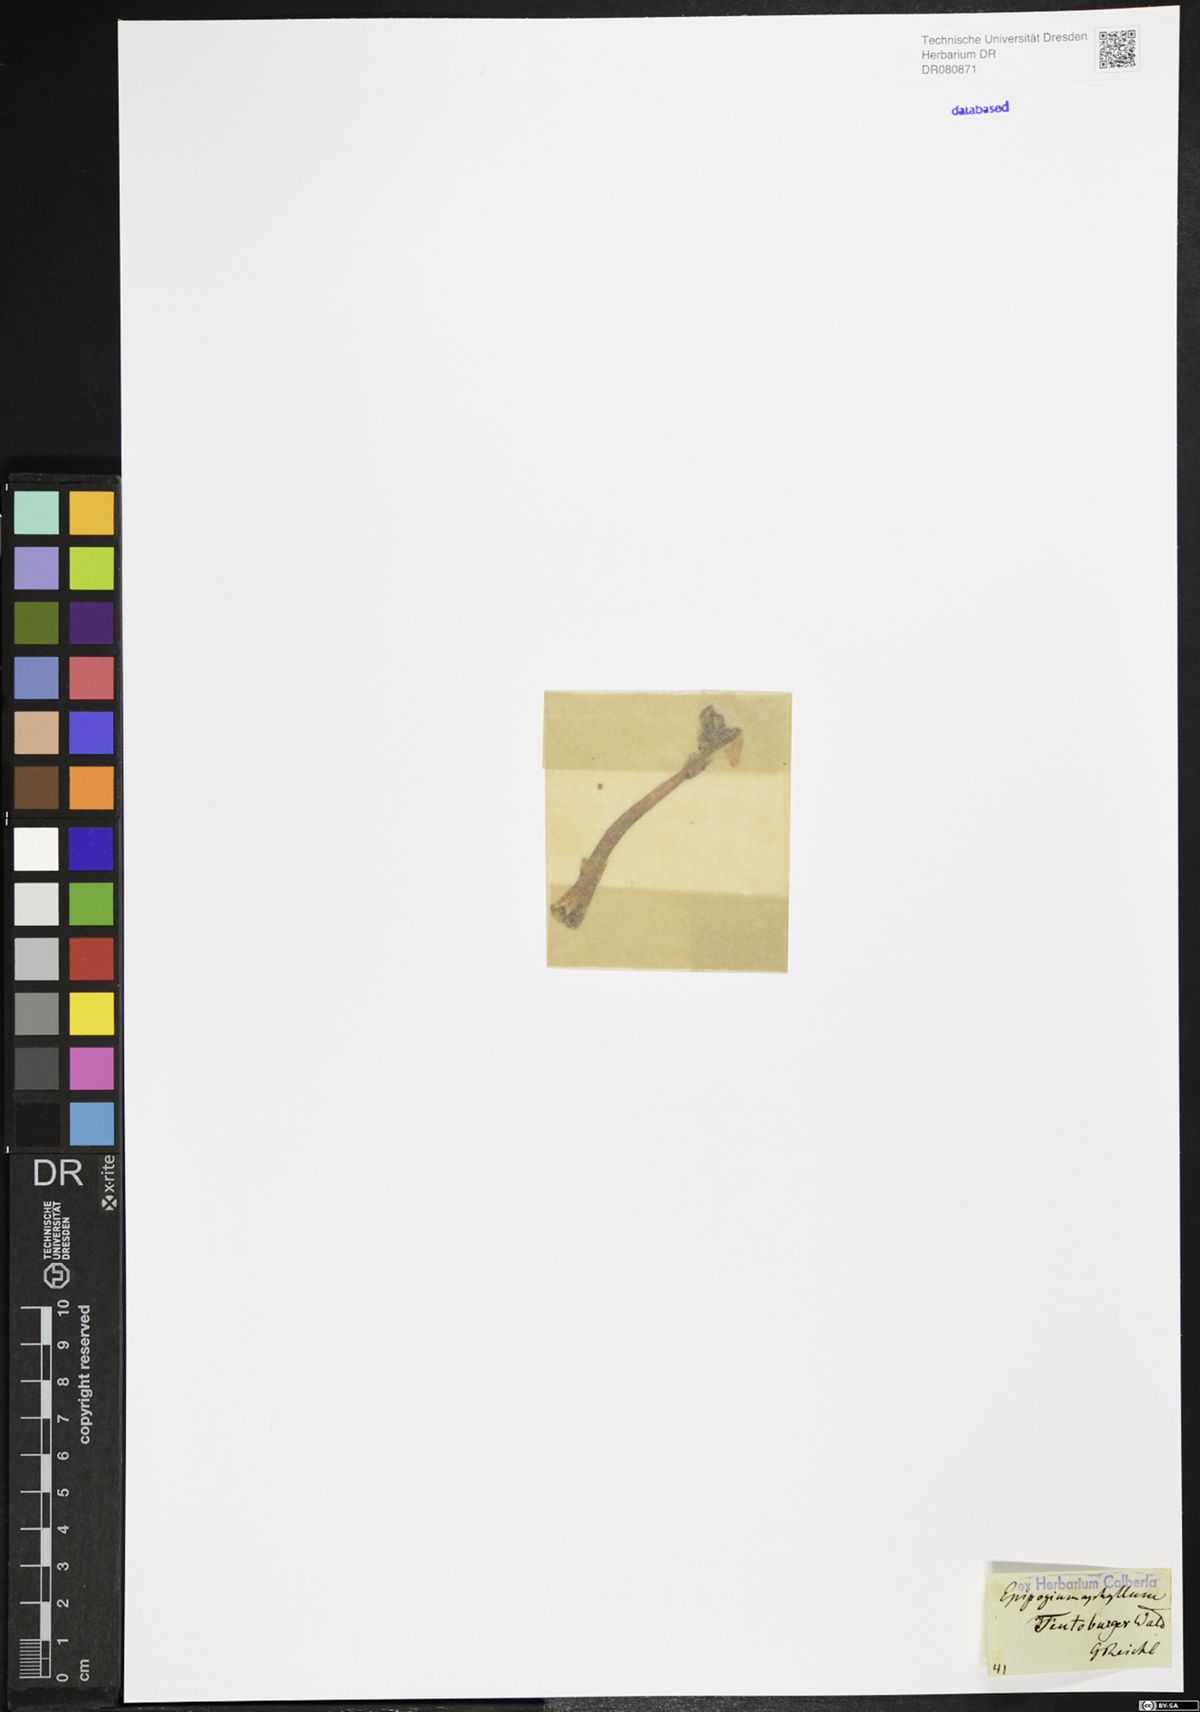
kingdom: Plantae
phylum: Tracheophyta
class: Liliopsida
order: Asparagales
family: Orchidaceae
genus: Epipogium
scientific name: Epipogium aphyllum
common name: Ghost orchid
